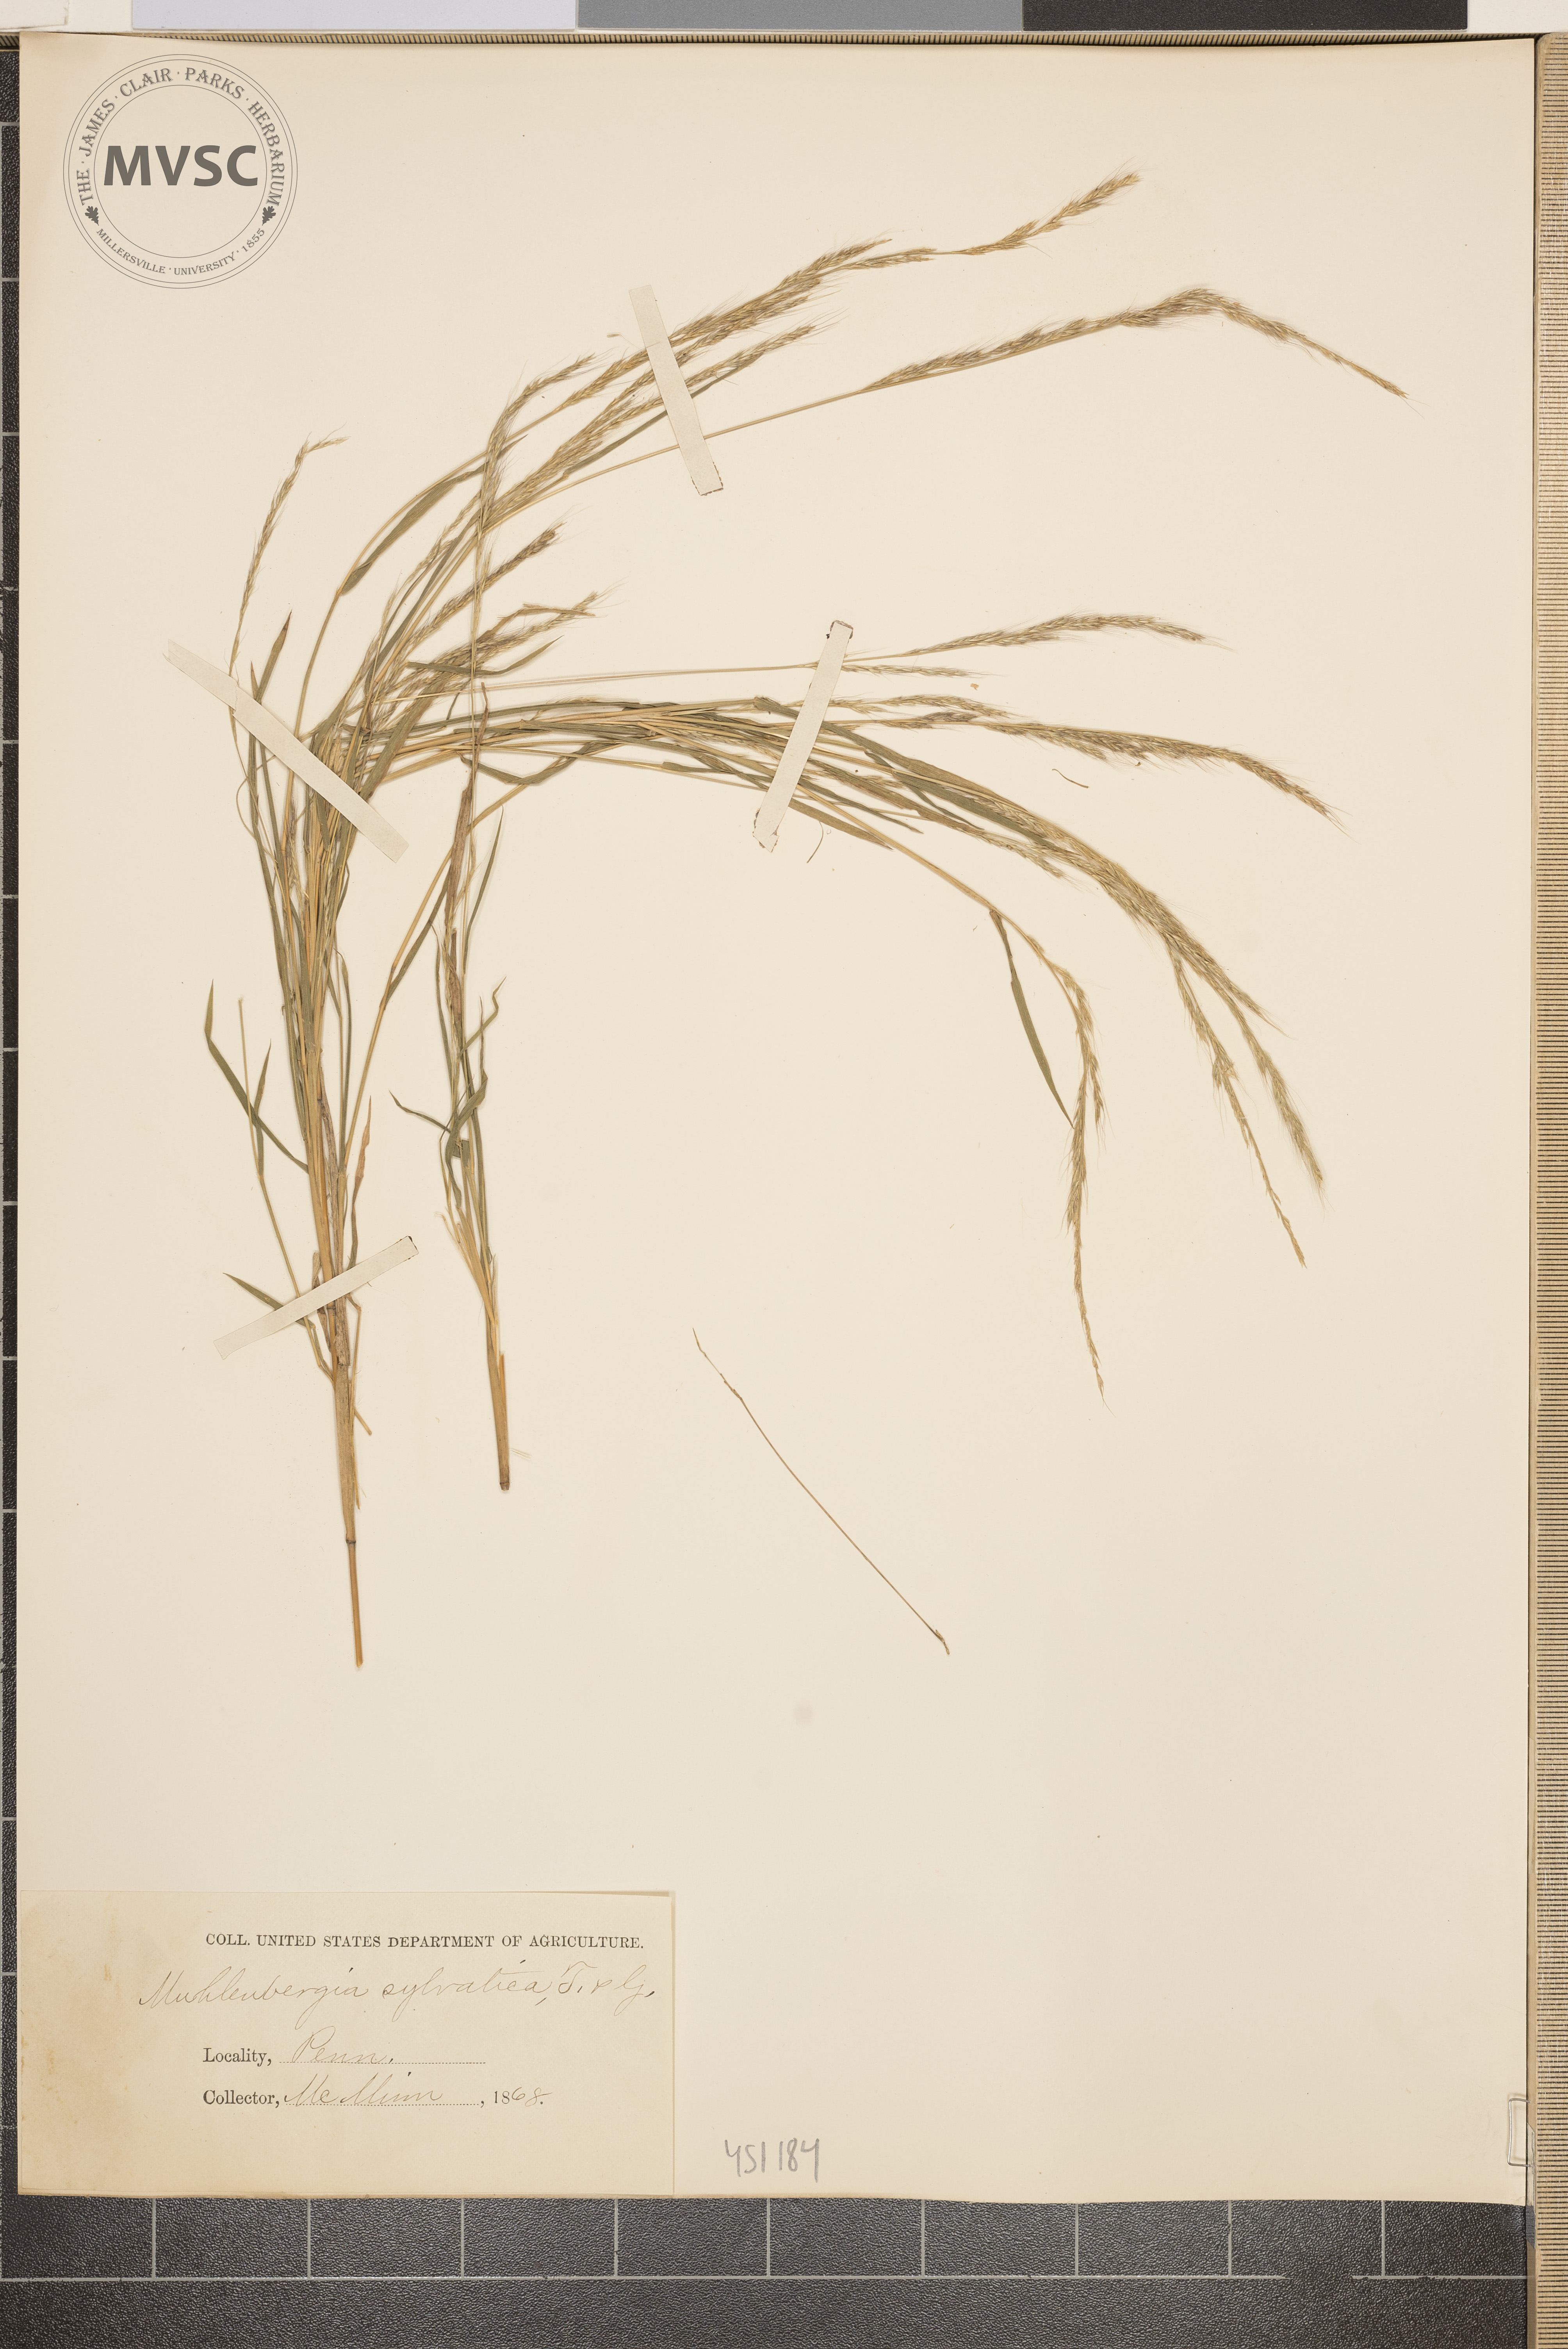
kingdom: Plantae
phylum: Tracheophyta
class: Liliopsida
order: Poales
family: Poaceae
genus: Muhlenbergia
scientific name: Muhlenbergia sylvatica
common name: Woodland muhly
